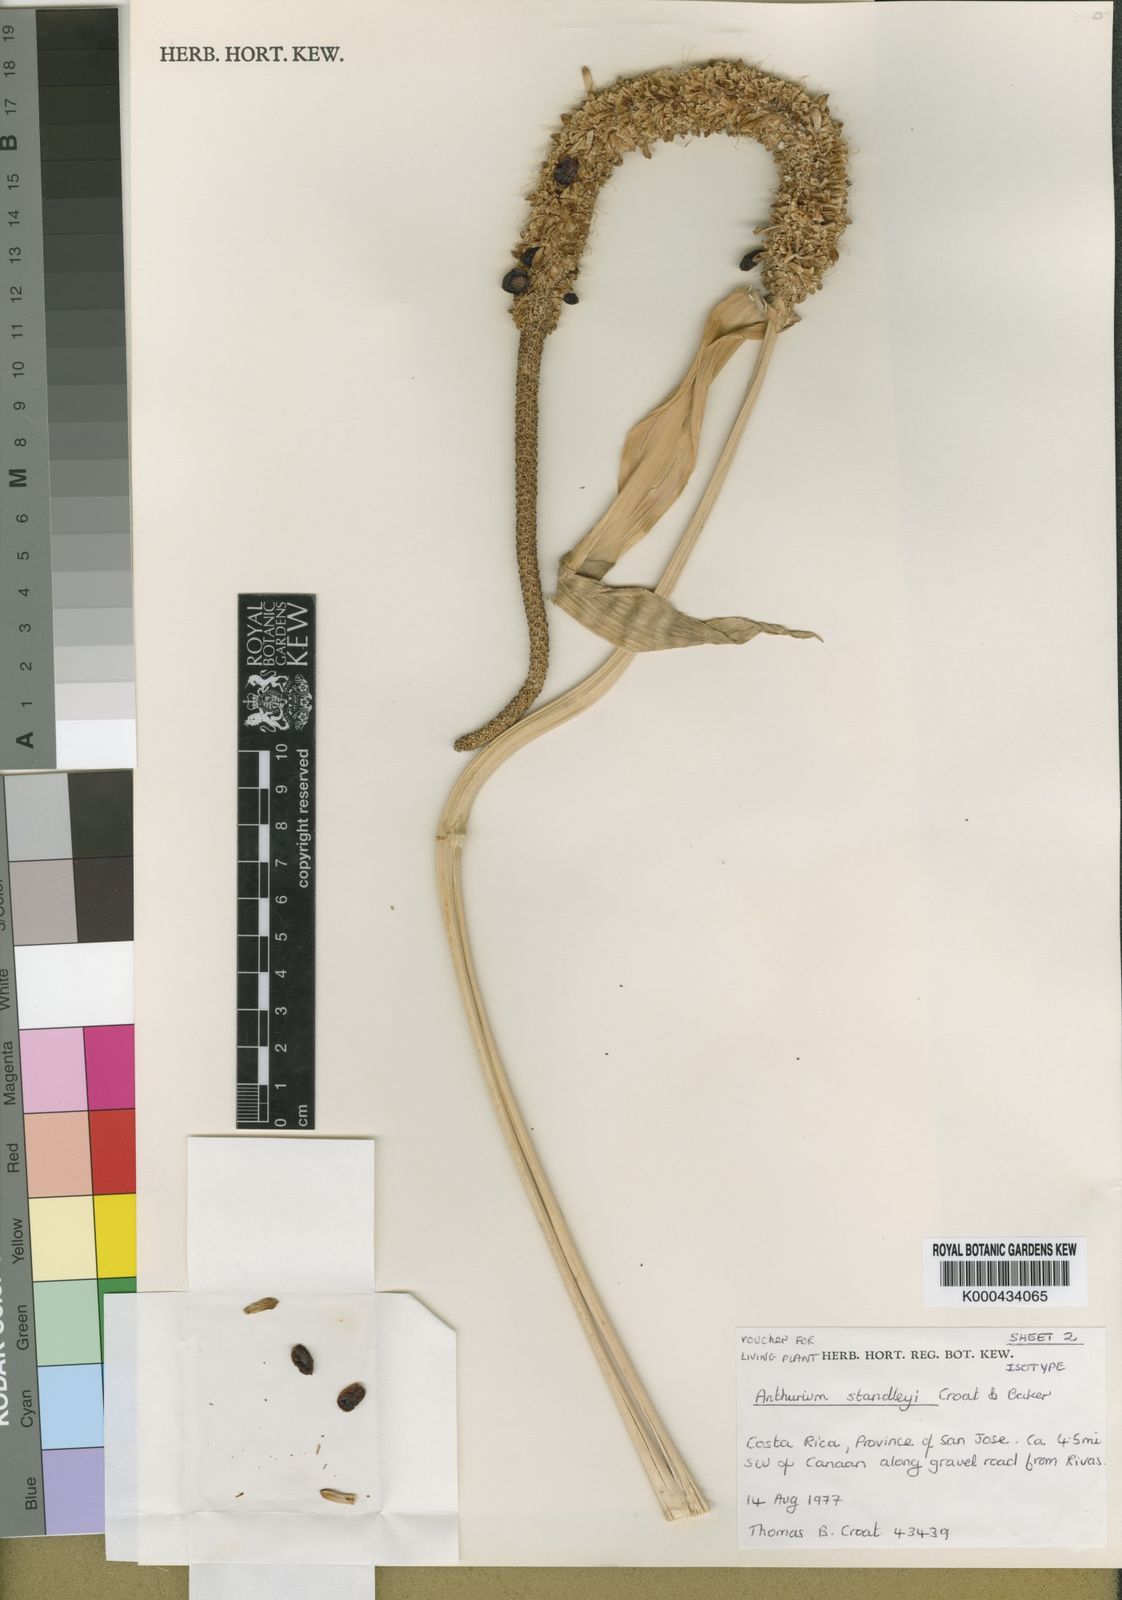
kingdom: Plantae
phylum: Tracheophyta
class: Liliopsida
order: Alismatales
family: Araceae
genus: Anthurium
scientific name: Anthurium standleyi
